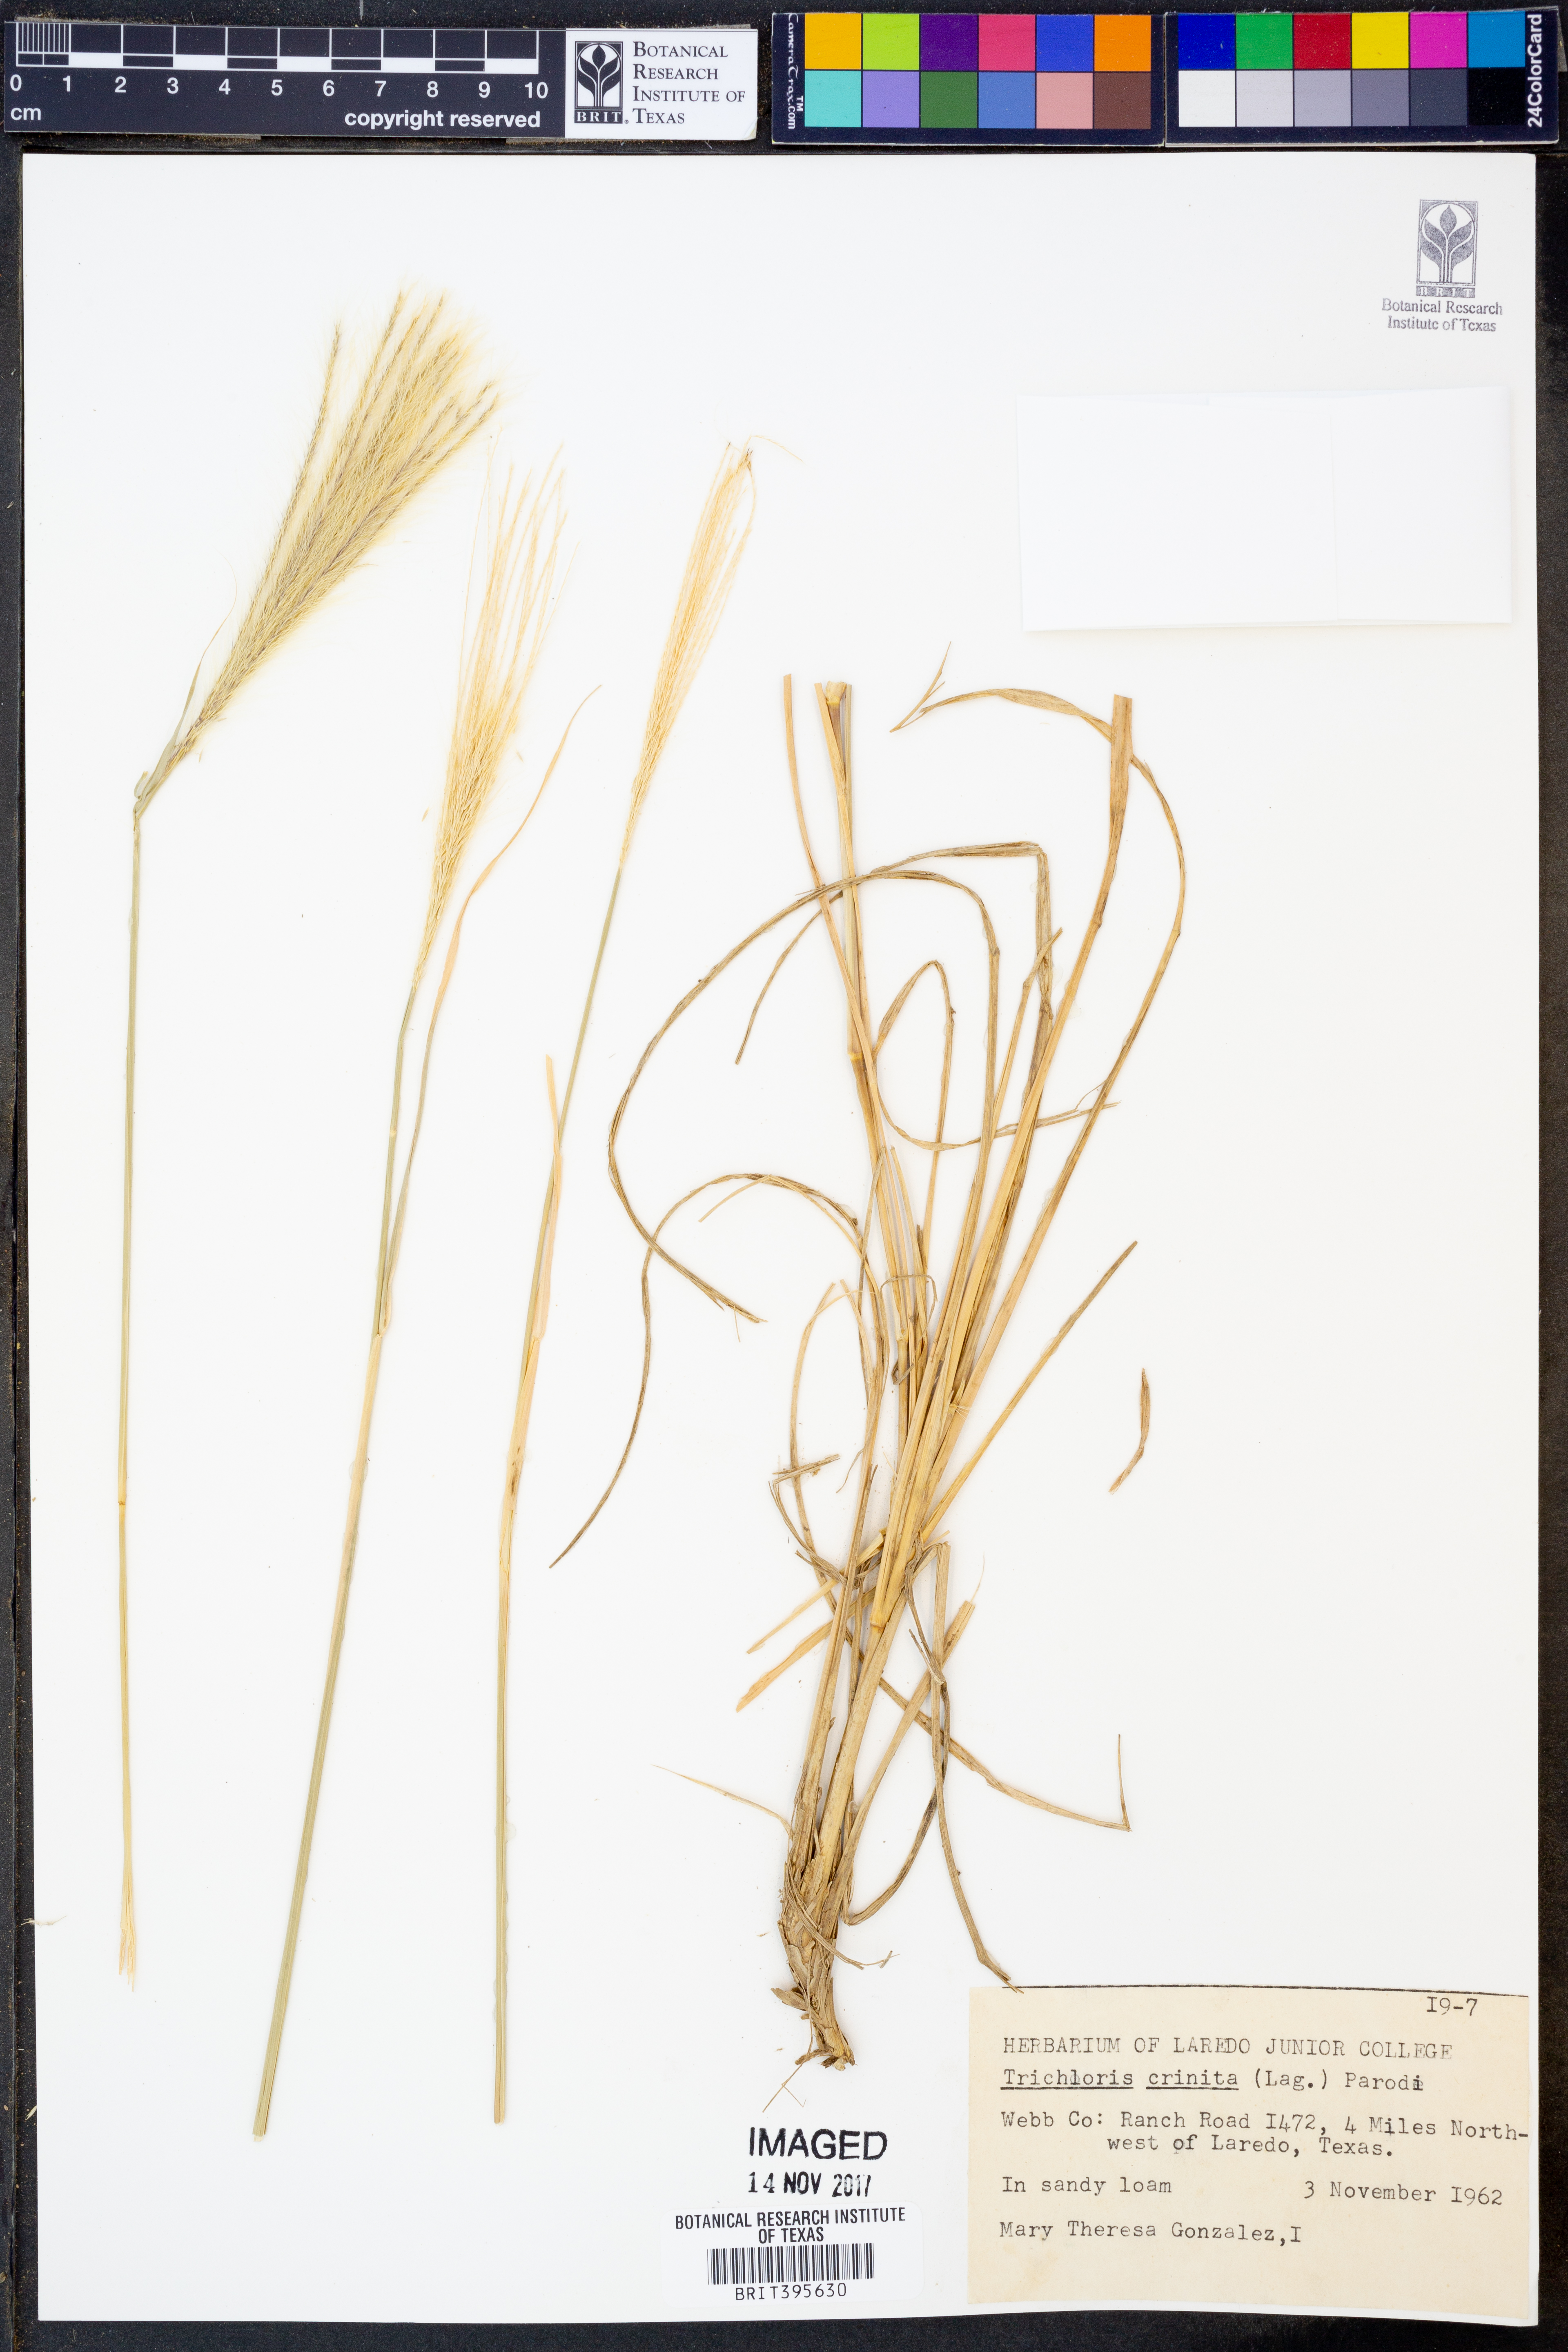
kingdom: Plantae
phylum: Tracheophyta
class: Liliopsida
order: Poales
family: Poaceae
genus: Leptochloa
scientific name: Leptochloa crinita
